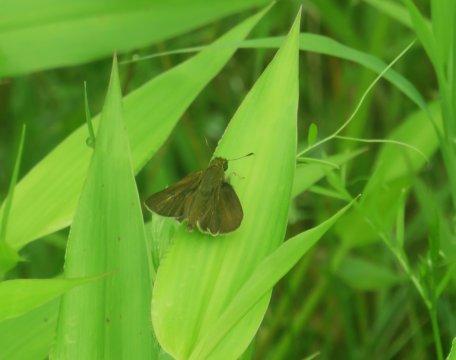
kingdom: Animalia
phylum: Arthropoda
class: Insecta
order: Lepidoptera
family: Hesperiidae
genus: Euphyes
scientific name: Euphyes vestris
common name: Dun Skipper
